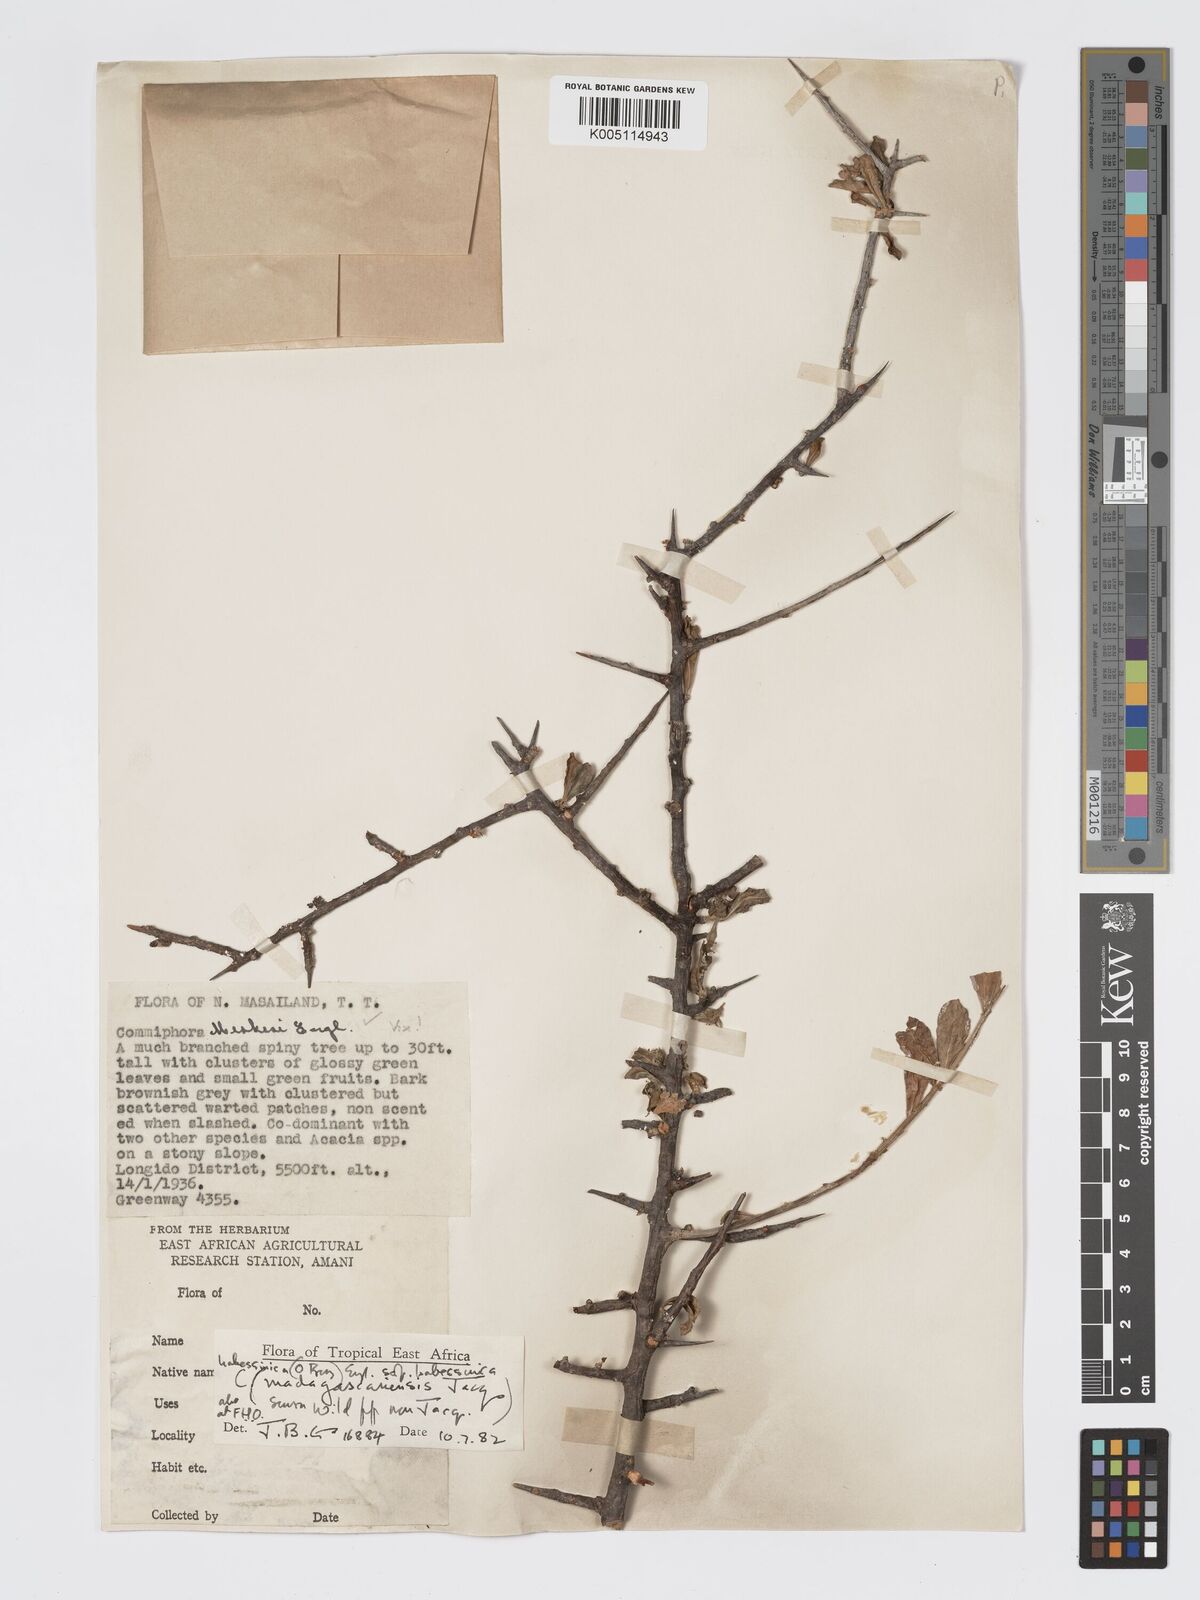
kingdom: Plantae
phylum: Tracheophyta
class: Magnoliopsida
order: Sapindales
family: Burseraceae
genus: Commiphora
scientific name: Commiphora kua
